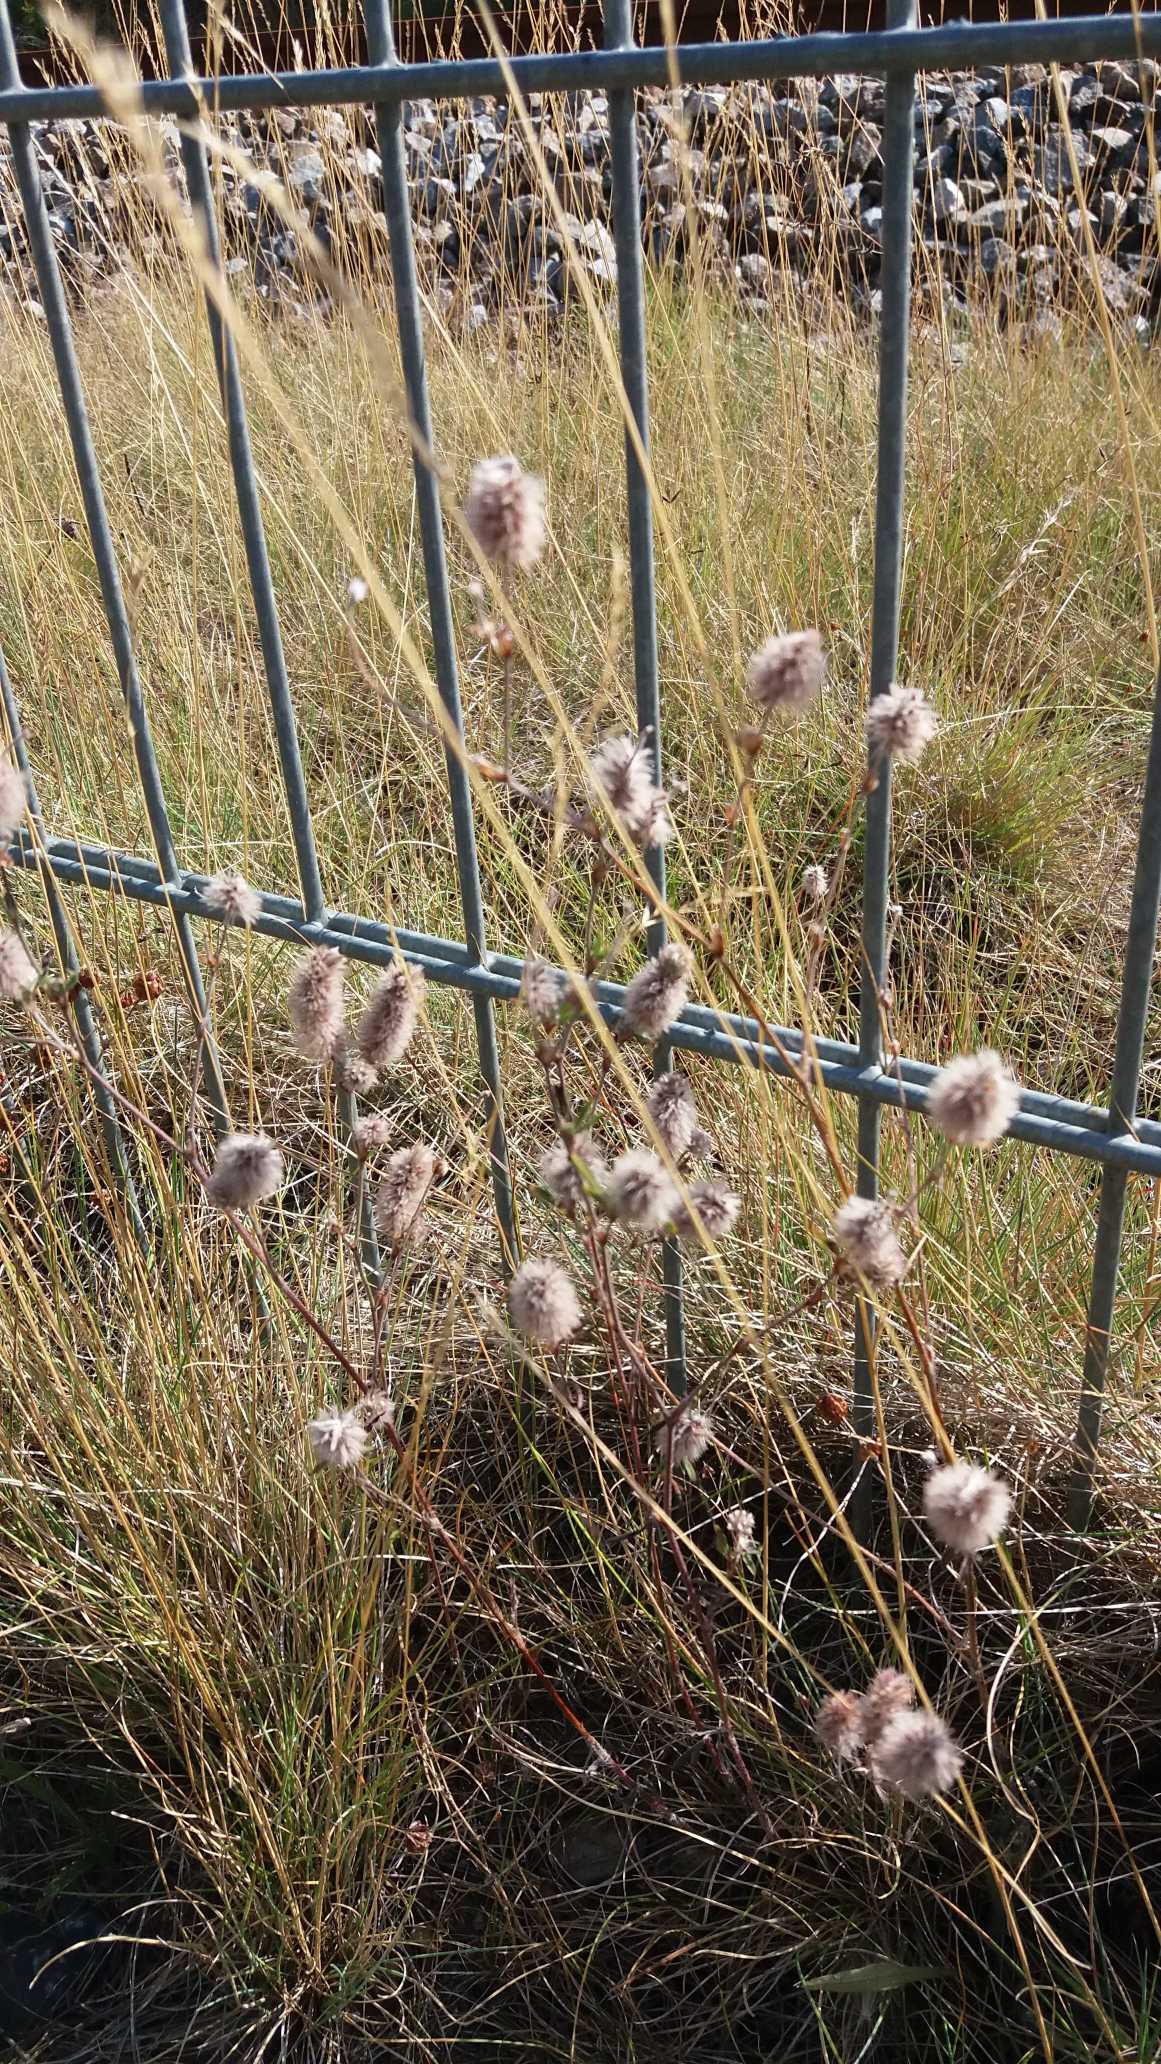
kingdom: Plantae
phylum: Tracheophyta
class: Magnoliopsida
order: Fabales
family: Fabaceae
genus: Trifolium
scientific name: Trifolium arvense
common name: Hare-kløver
